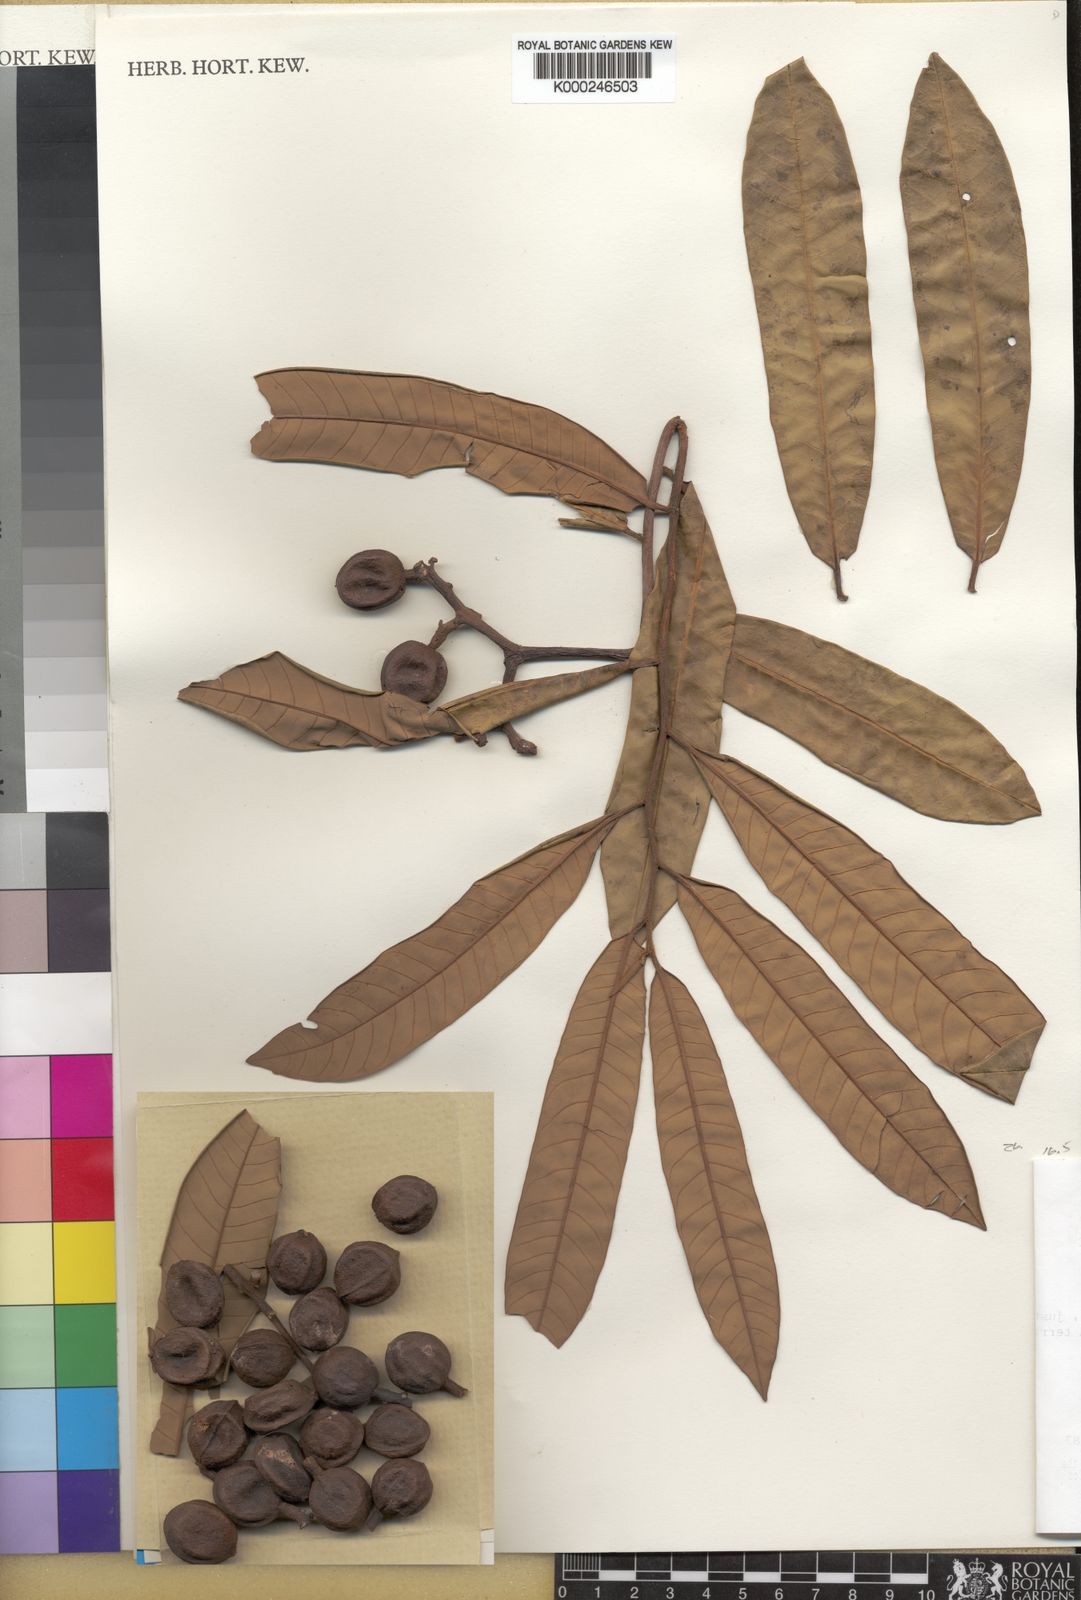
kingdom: Plantae
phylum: Tracheophyta
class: Magnoliopsida
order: Magnoliales
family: Myristicaceae
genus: Virola
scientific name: Virola surinamensis
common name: Baboonwood
